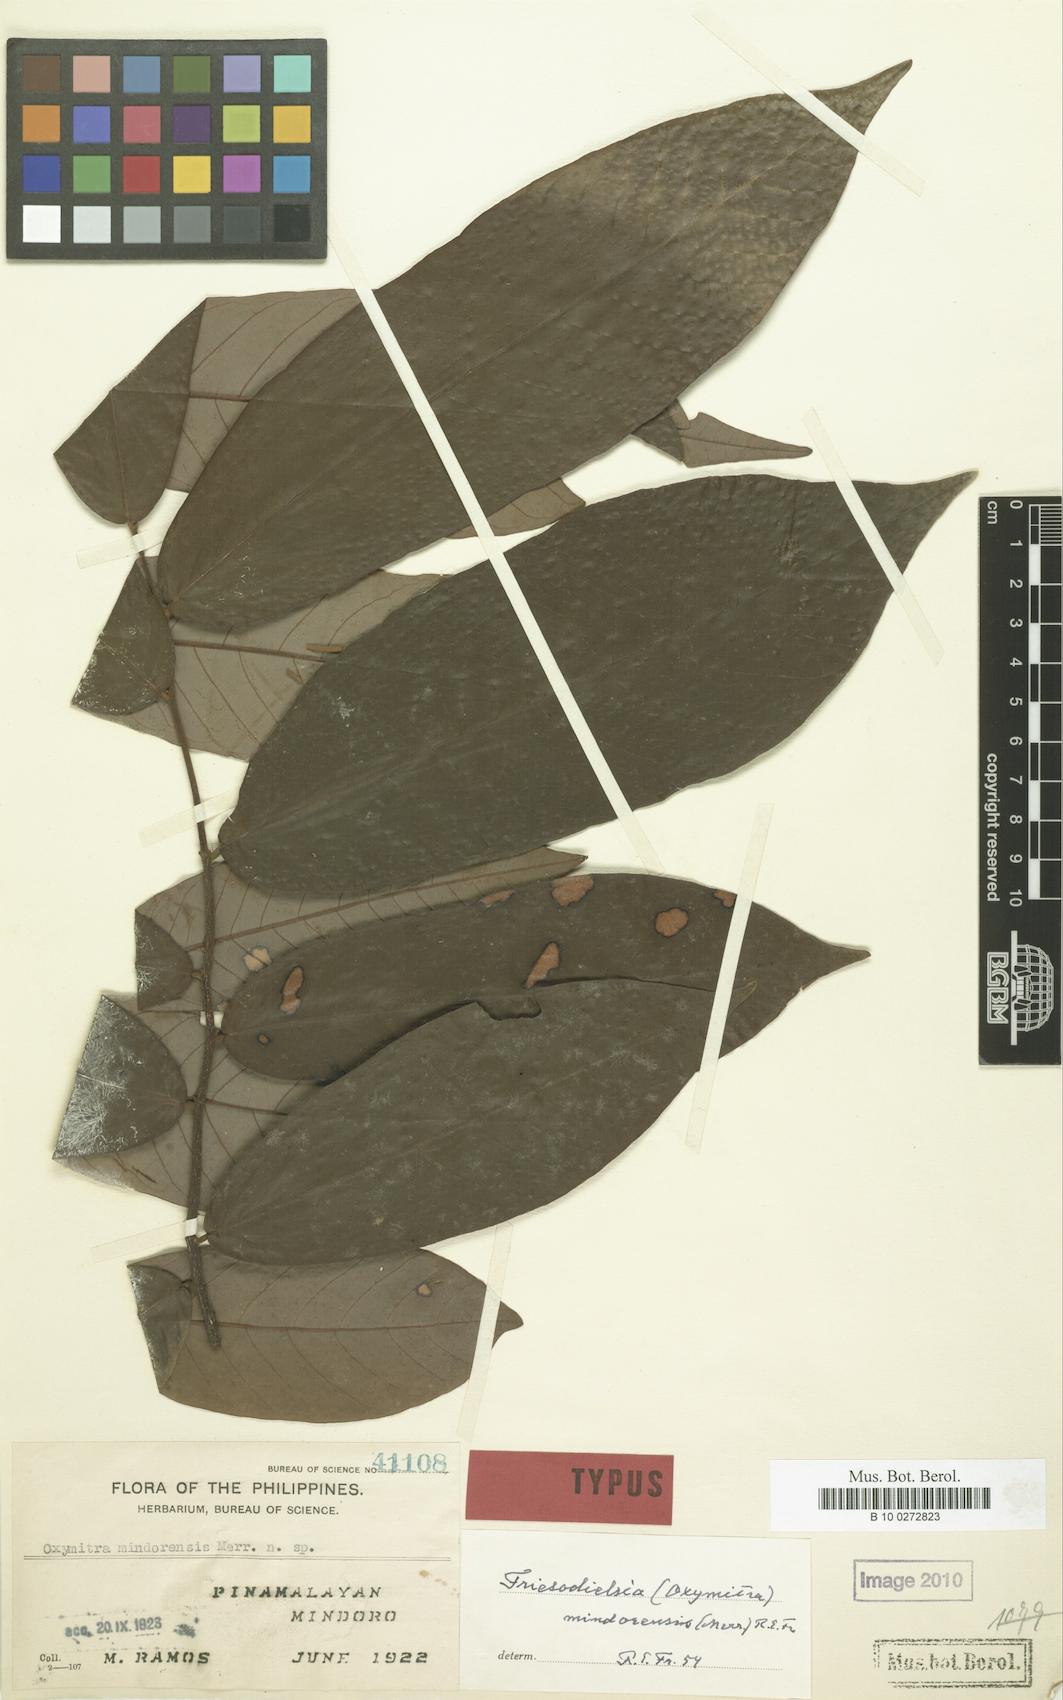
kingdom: Plantae
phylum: Tracheophyta
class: Magnoliopsida
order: Magnoliales
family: Annonaceae
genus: Friesodielsia
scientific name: Friesodielsia mindorensis
